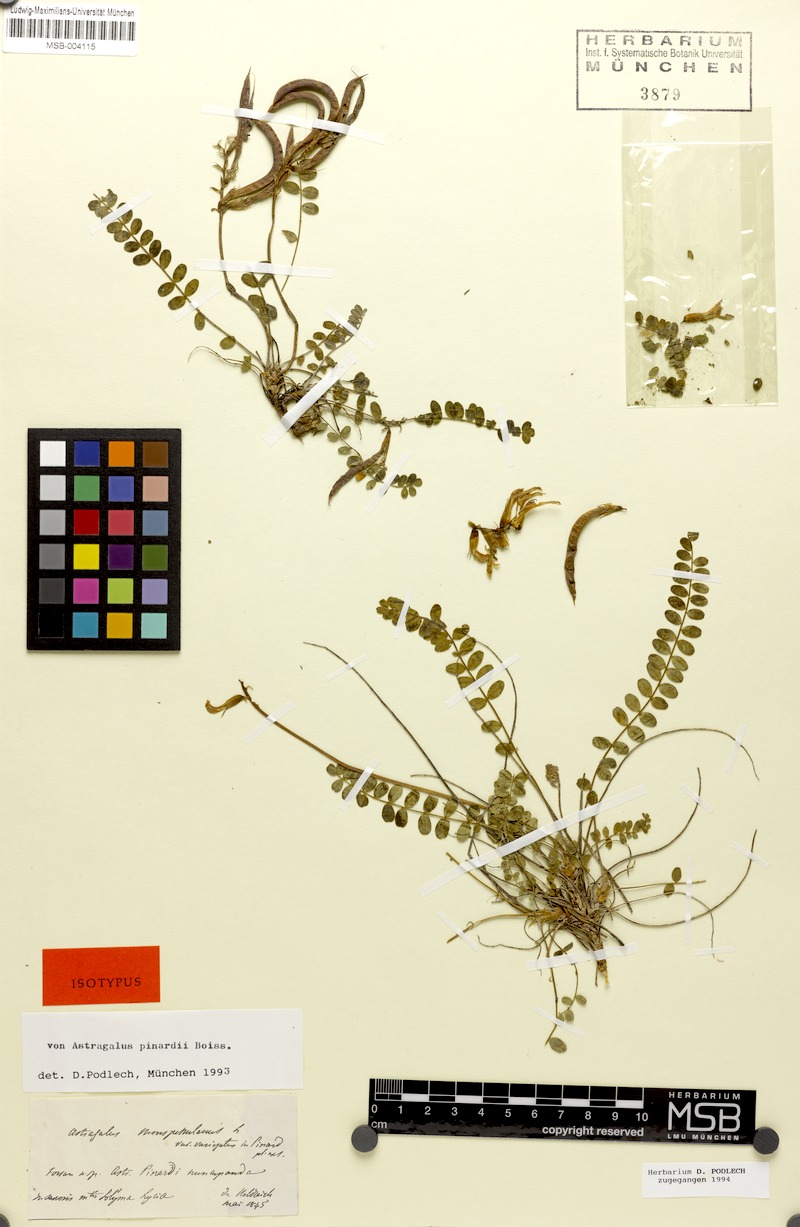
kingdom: Plantae
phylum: Tracheophyta
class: Magnoliopsida
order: Fabales
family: Fabaceae
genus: Astragalus
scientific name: Astragalus schizopterus
